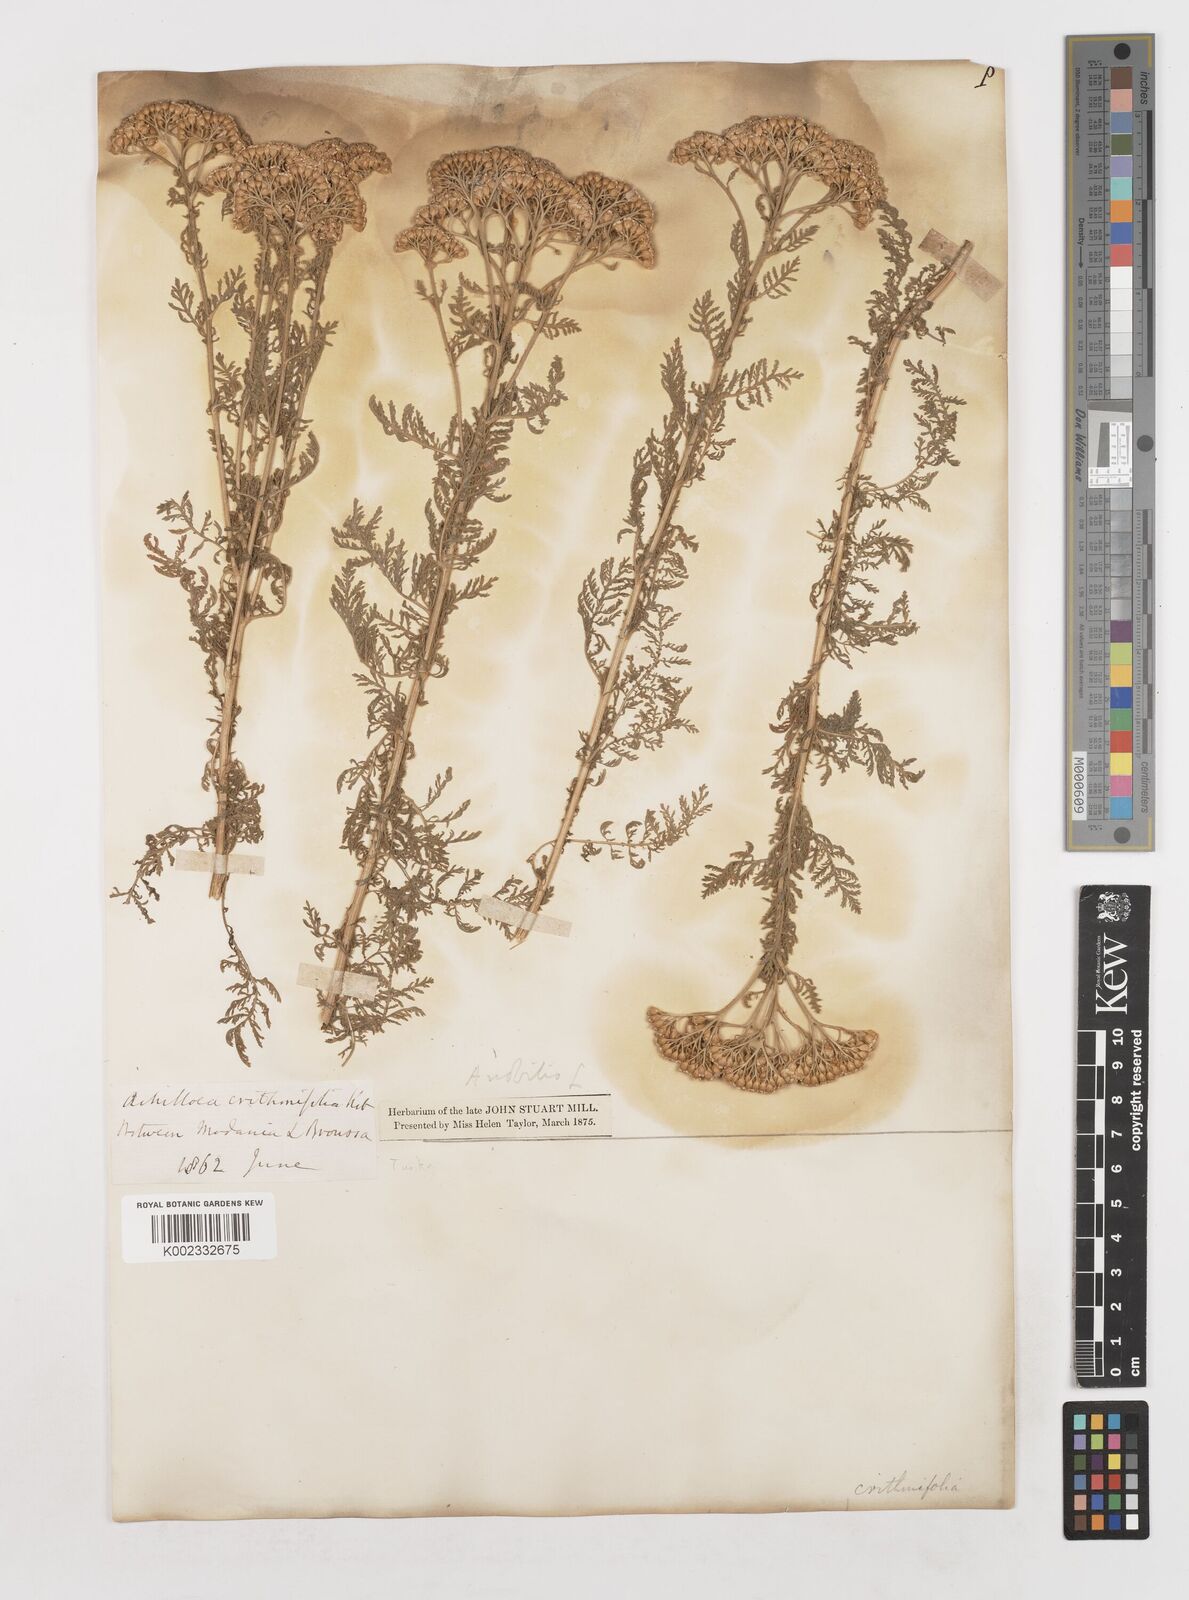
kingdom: Plantae
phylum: Tracheophyta
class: Magnoliopsida
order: Asterales
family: Asteraceae
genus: Achillea
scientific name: Achillea nobilis
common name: Noble yarrow
